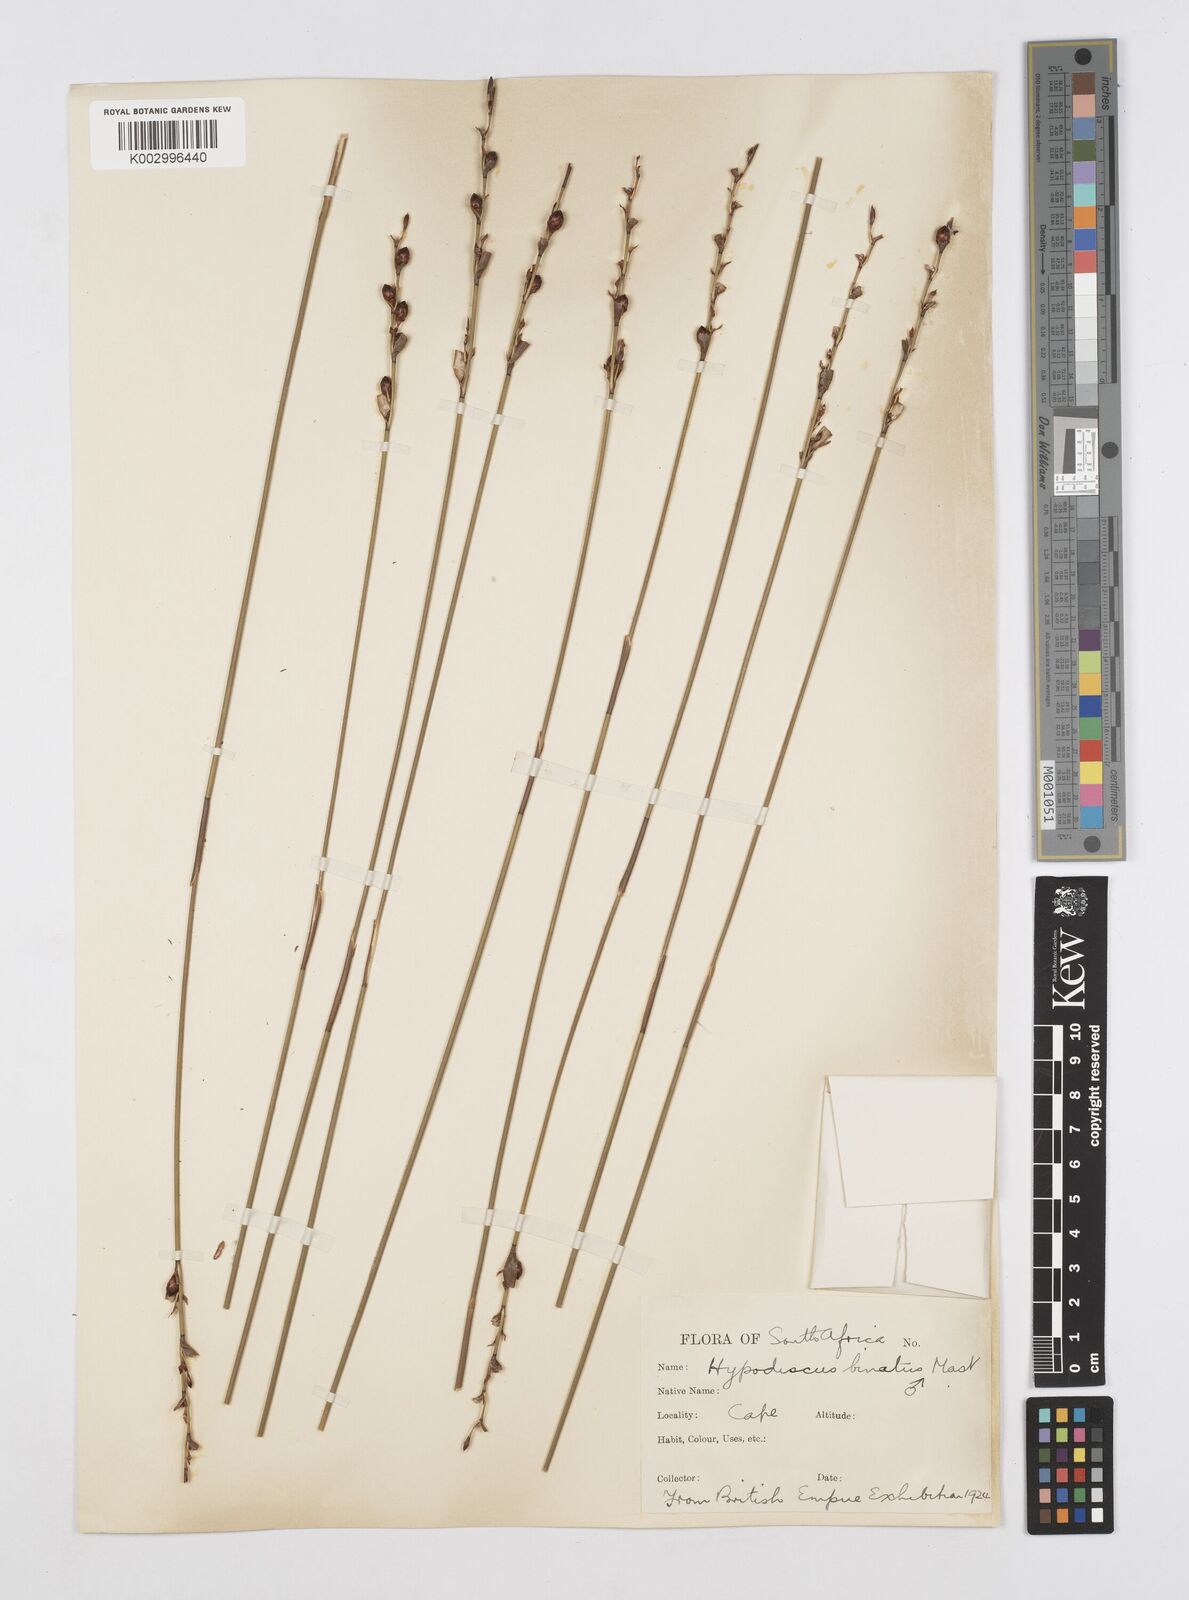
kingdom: Plantae
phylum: Tracheophyta
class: Liliopsida
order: Poales
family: Restionaceae
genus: Hypodiscus
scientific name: Hypodiscus laevigatus
